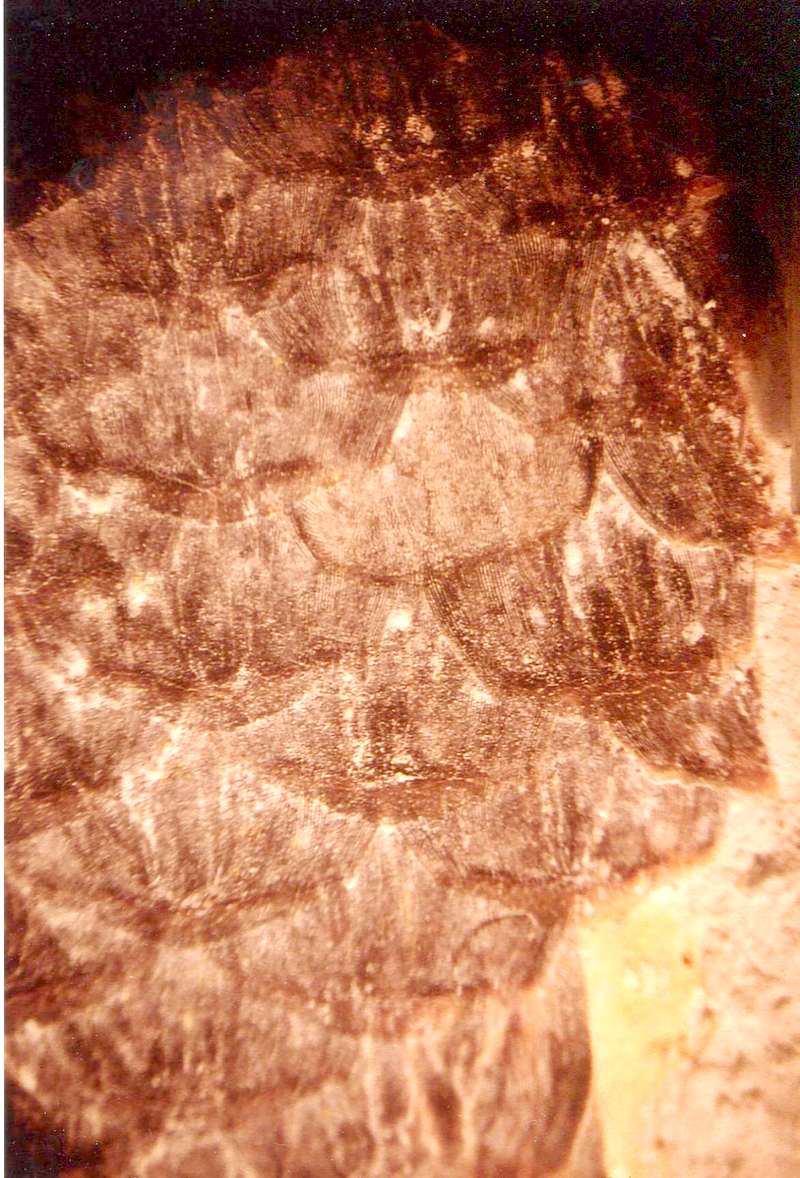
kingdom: Animalia
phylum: Chordata
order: Amiiformes
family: Ionoscopidae
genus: Ionoscopus
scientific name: Ionoscopus
